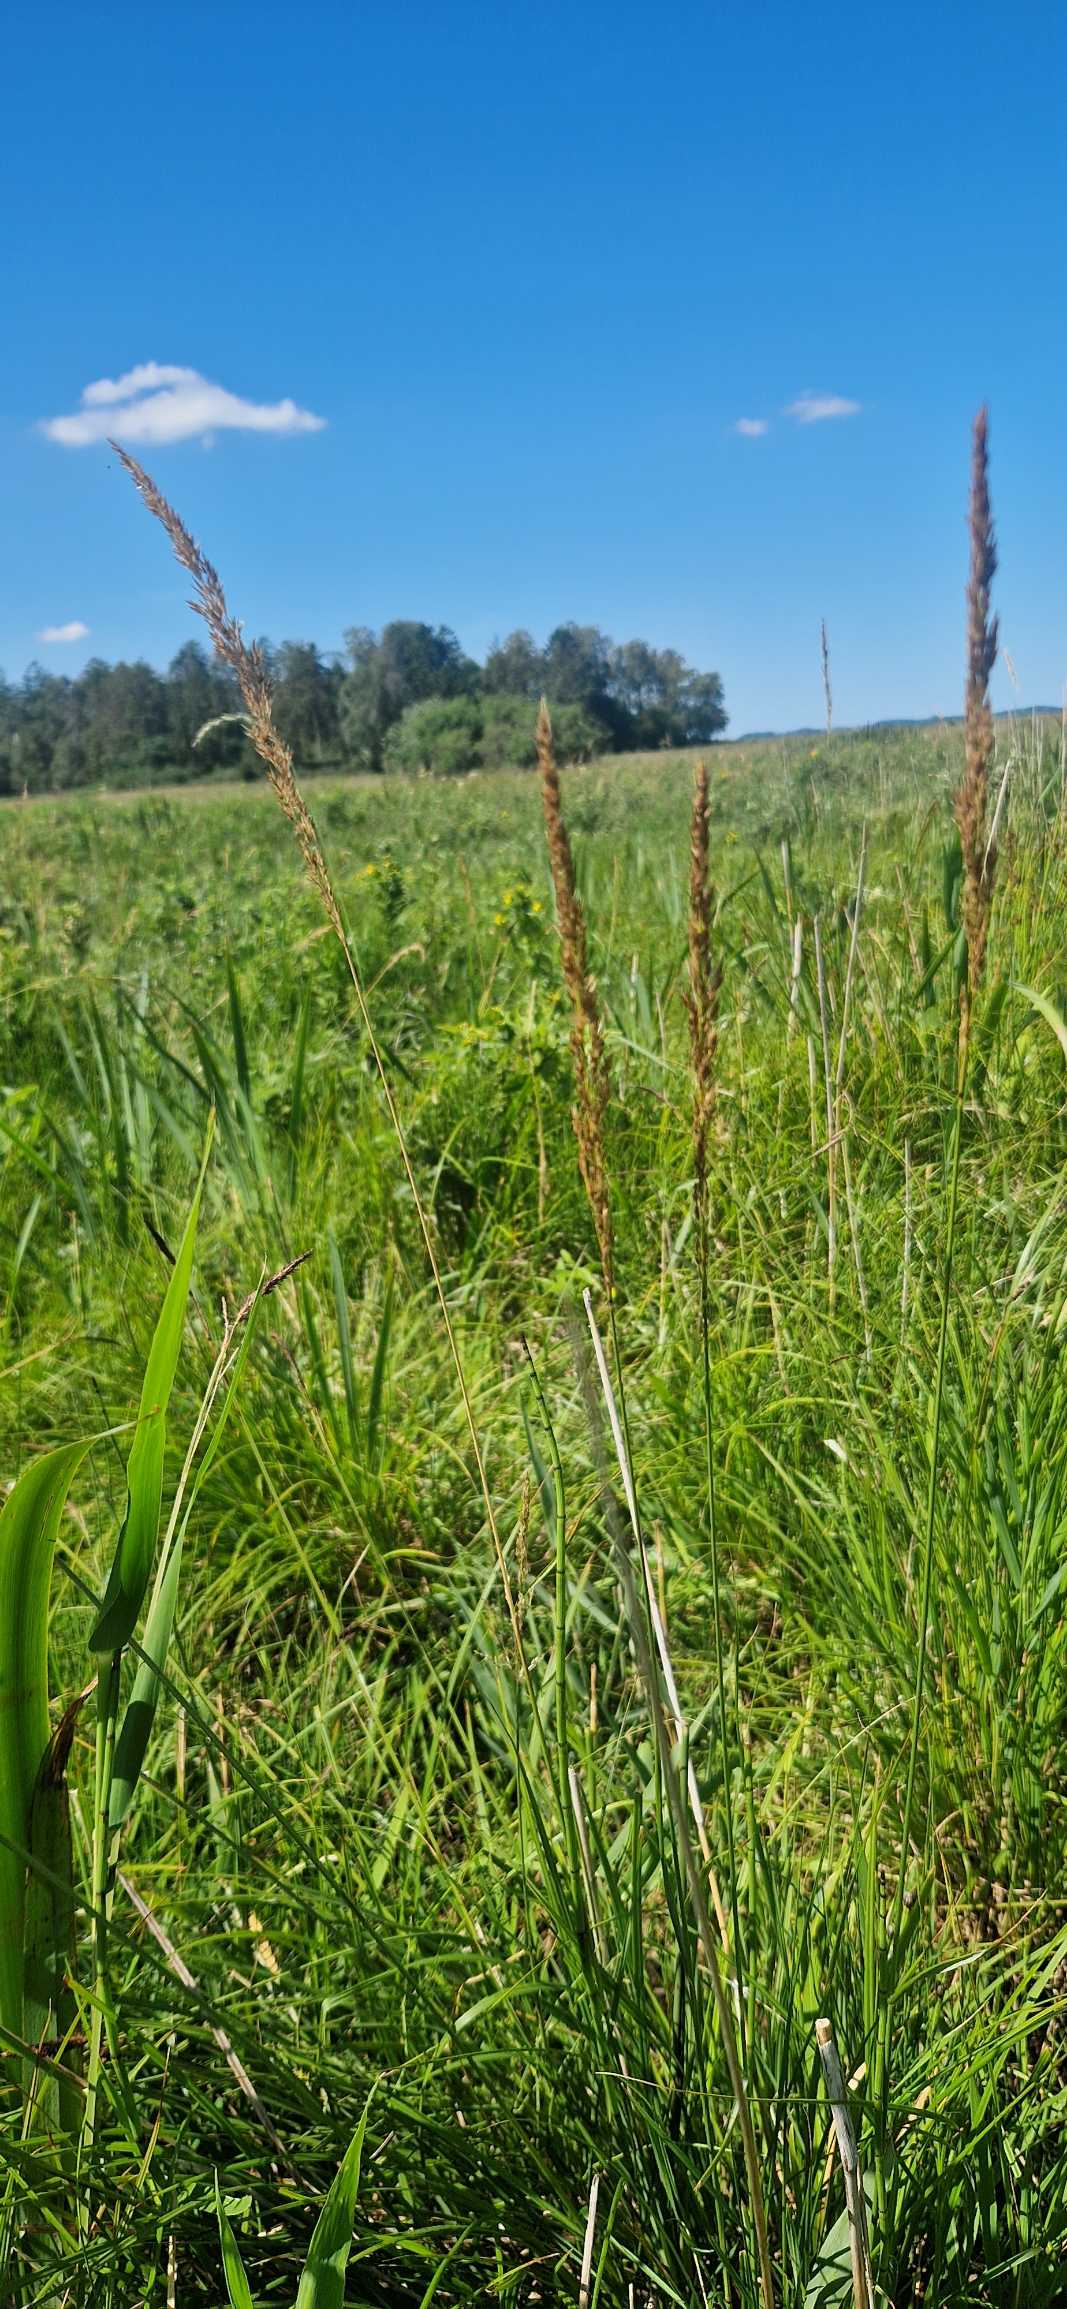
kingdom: Plantae
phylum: Tracheophyta
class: Liliopsida
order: Poales
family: Poaceae
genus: Achnatherum
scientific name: Achnatherum calamagrostis
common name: Stivtoppet rørhvene
